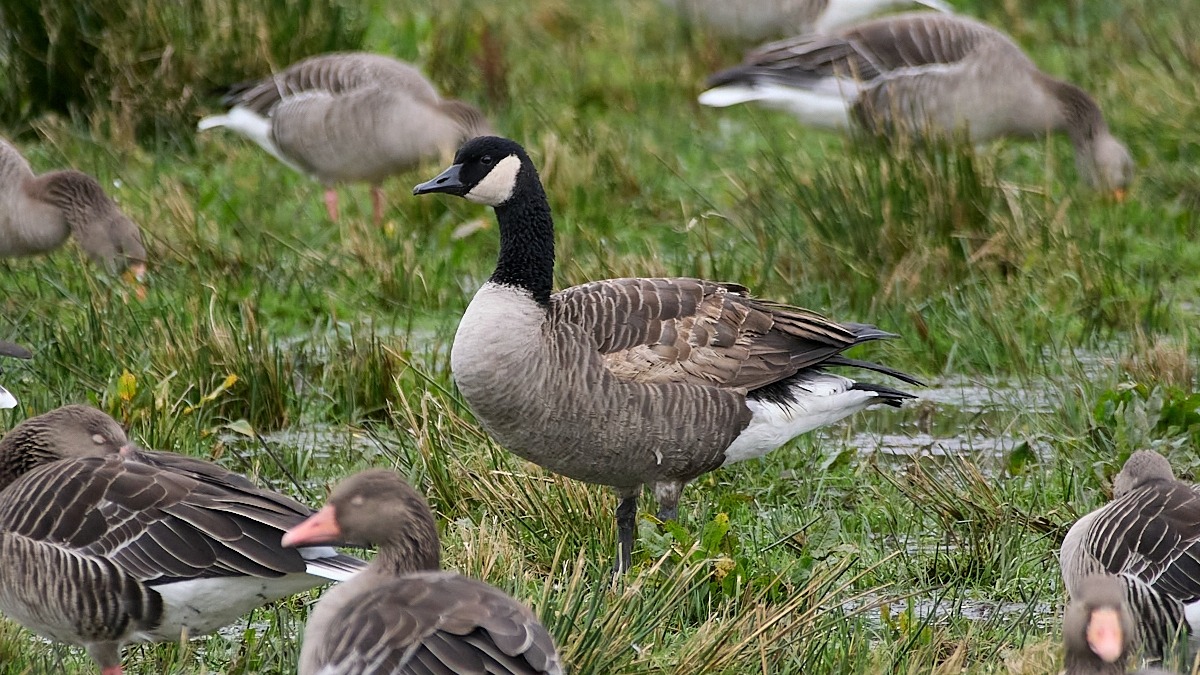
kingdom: Animalia
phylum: Chordata
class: Aves
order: Anseriformes
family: Anatidae
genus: Branta
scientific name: Branta canadensis
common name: Canadagås
